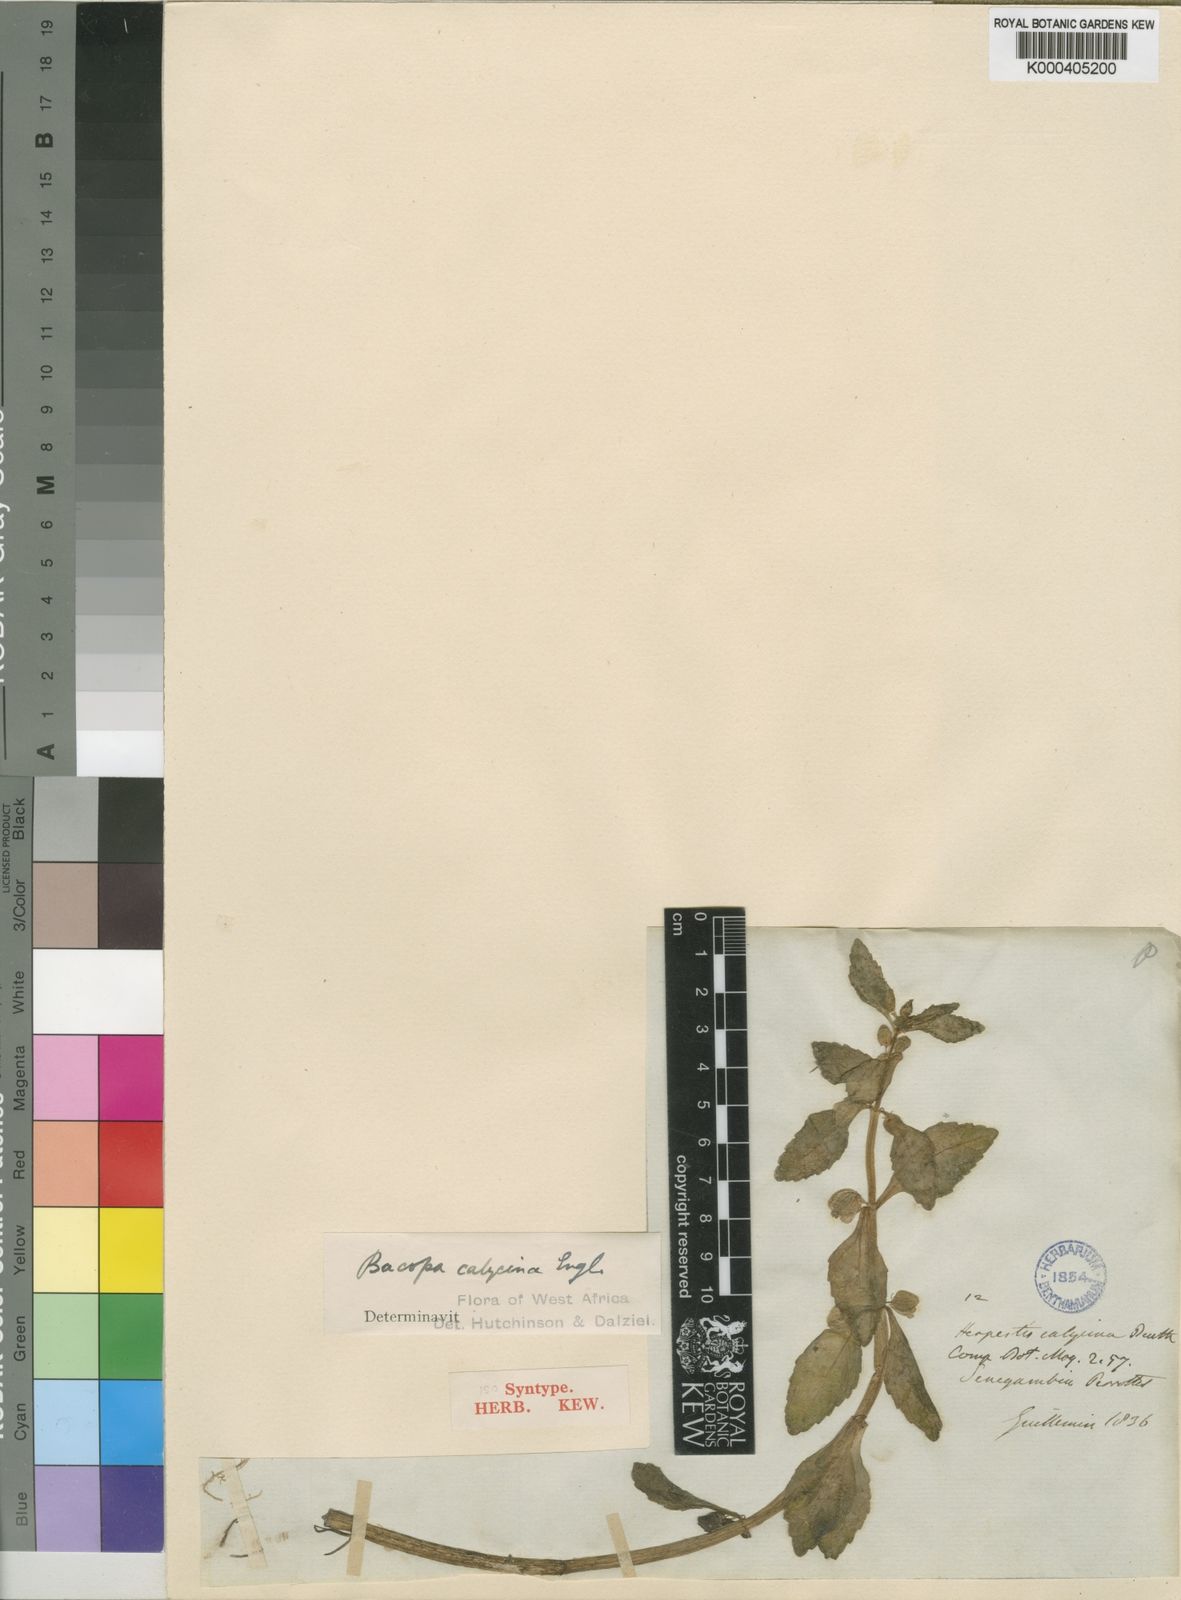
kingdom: Plantae
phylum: Tracheophyta
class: Magnoliopsida
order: Lamiales
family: Plantaginaceae
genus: Bacopa
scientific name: Bacopa crenata
